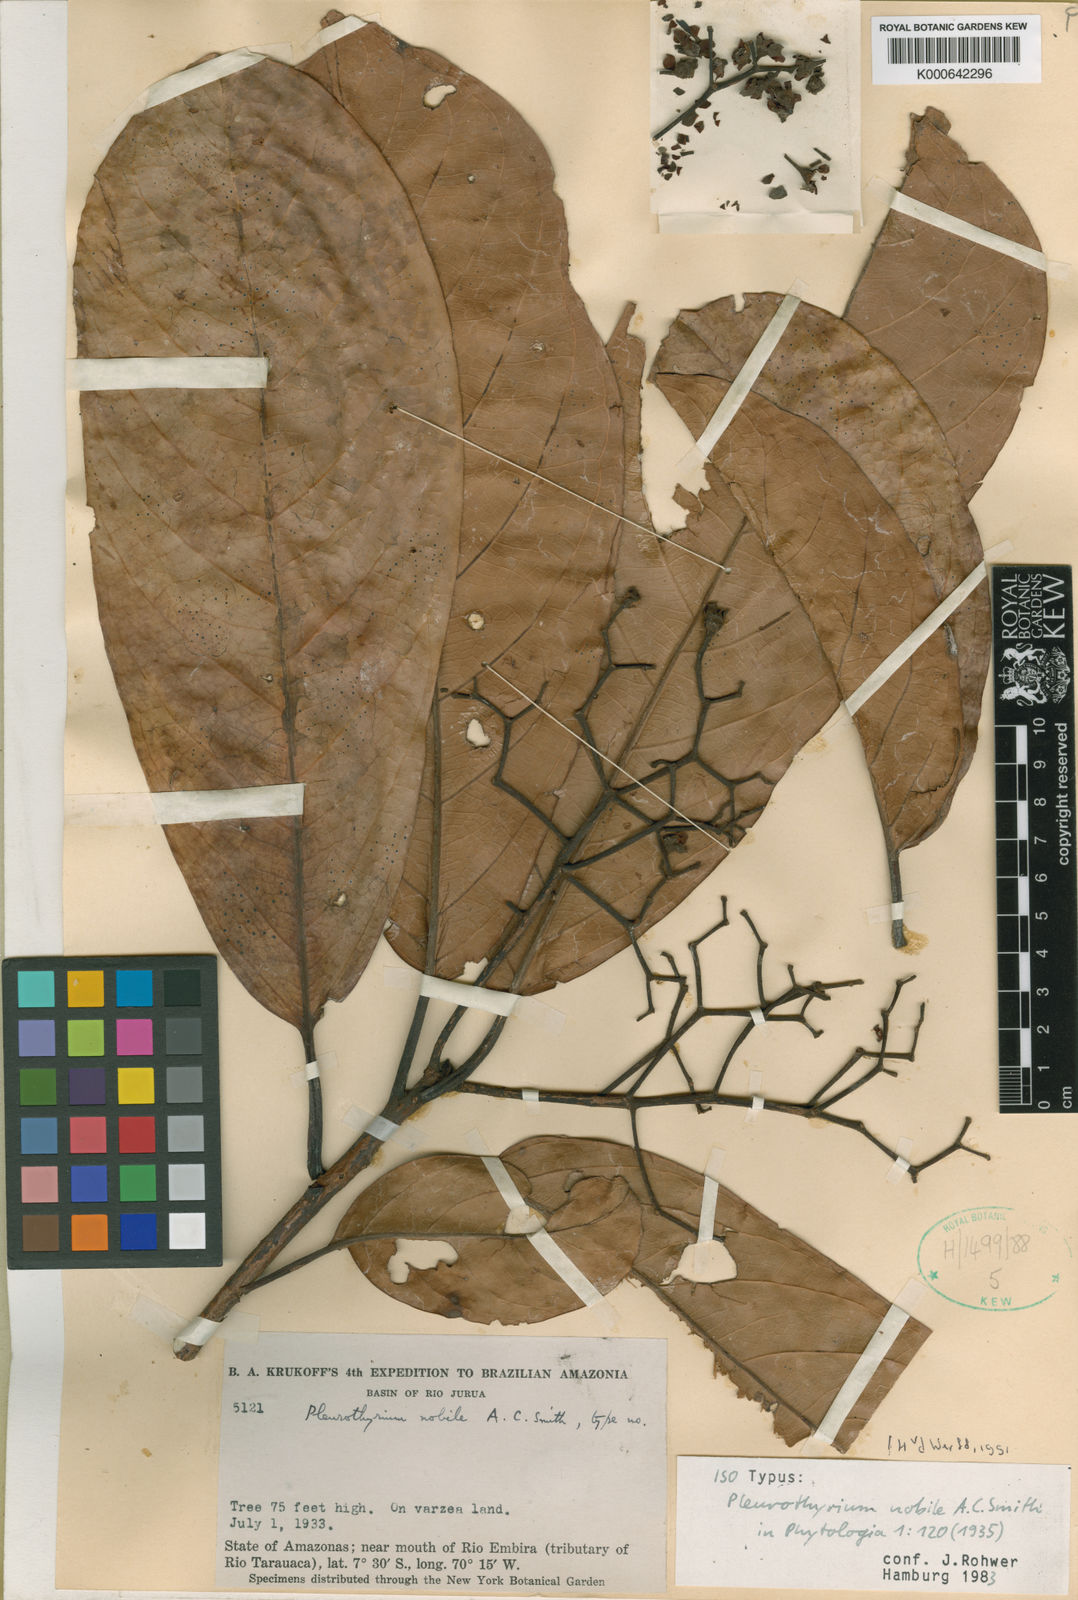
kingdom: Plantae
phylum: Tracheophyta
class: Magnoliopsida
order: Laurales
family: Lauraceae
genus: Ocotea
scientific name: Ocotea nobilis
